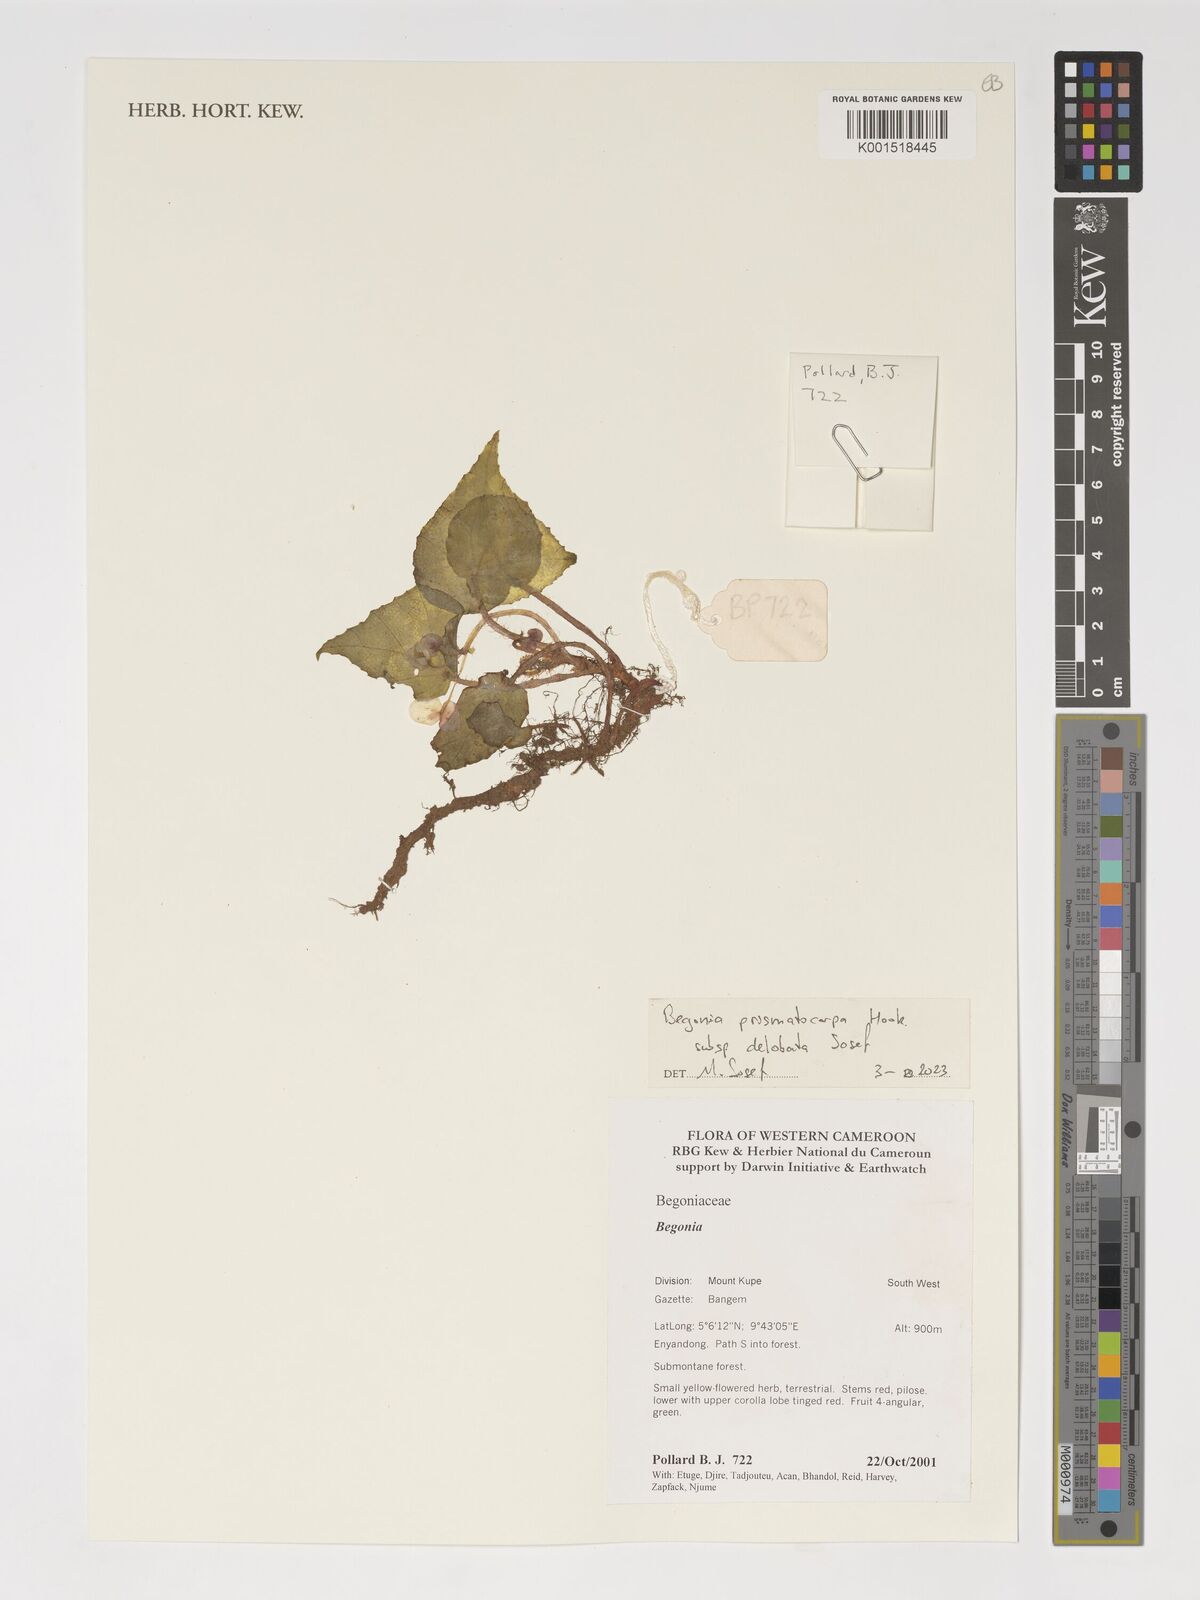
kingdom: Plantae
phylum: Tracheophyta
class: Magnoliopsida
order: Cucurbitales
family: Begoniaceae
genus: Begonia
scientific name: Begonia prismatocarpa
